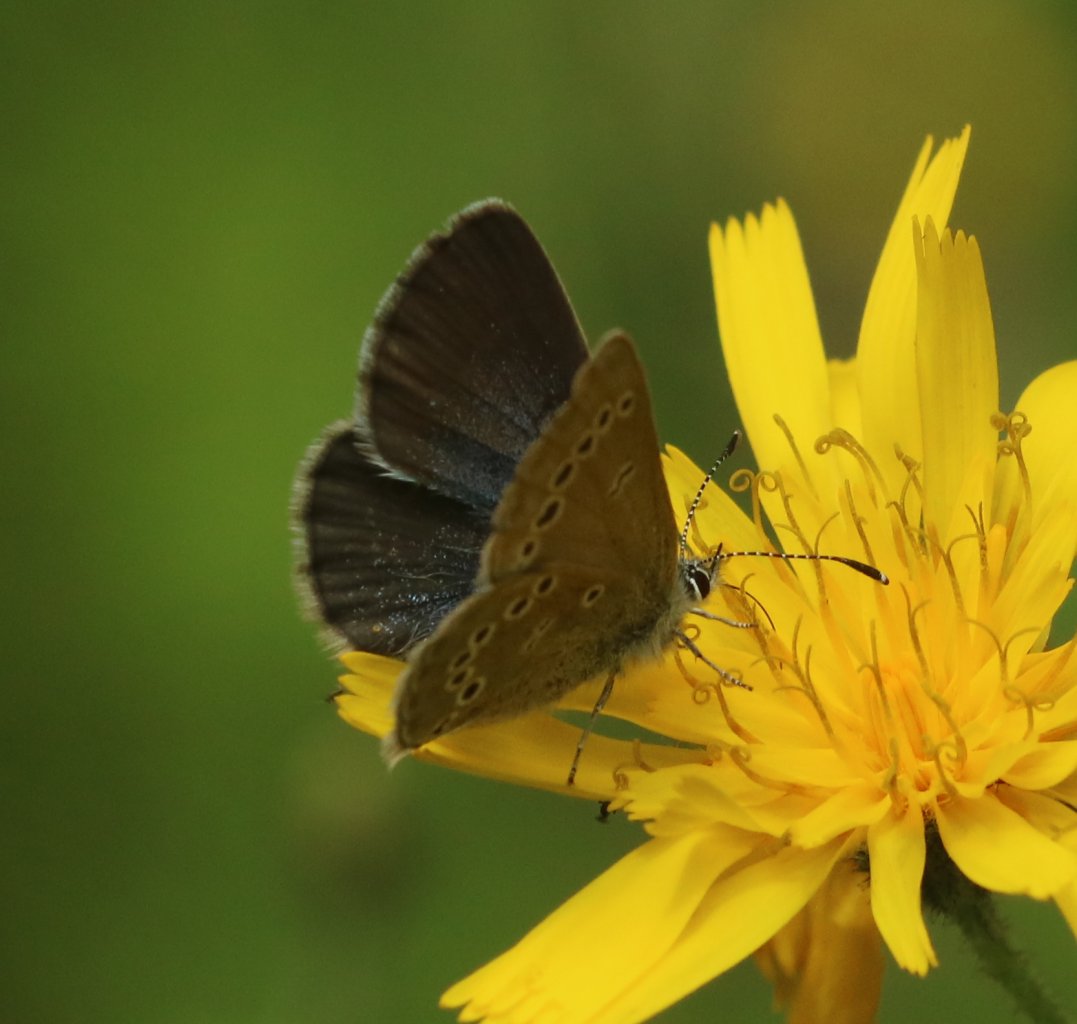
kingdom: Animalia
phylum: Arthropoda
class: Insecta
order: Lepidoptera
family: Lycaenidae
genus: Glaucopsyche
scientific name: Glaucopsyche lygdamus
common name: Silvery Blue
